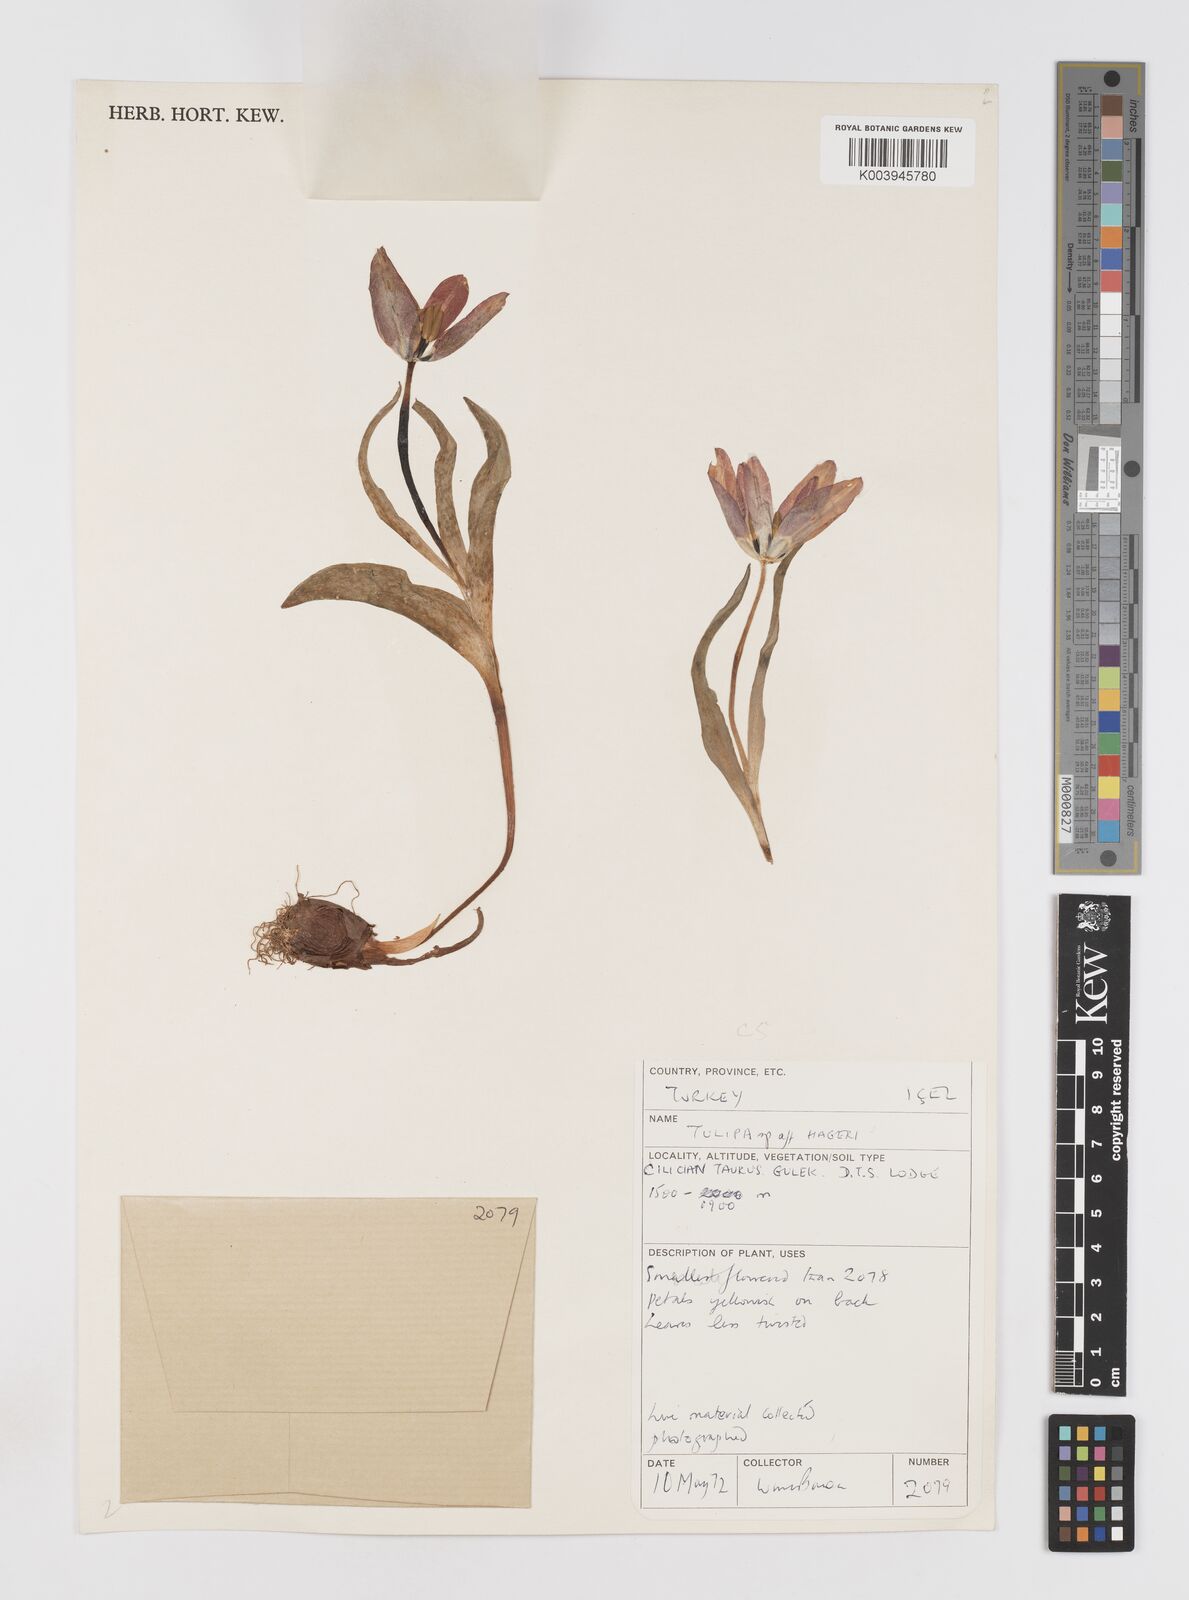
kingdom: Plantae
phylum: Tracheophyta
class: Liliopsida
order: Liliales
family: Liliaceae
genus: Tulipa
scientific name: Tulipa foliosa
